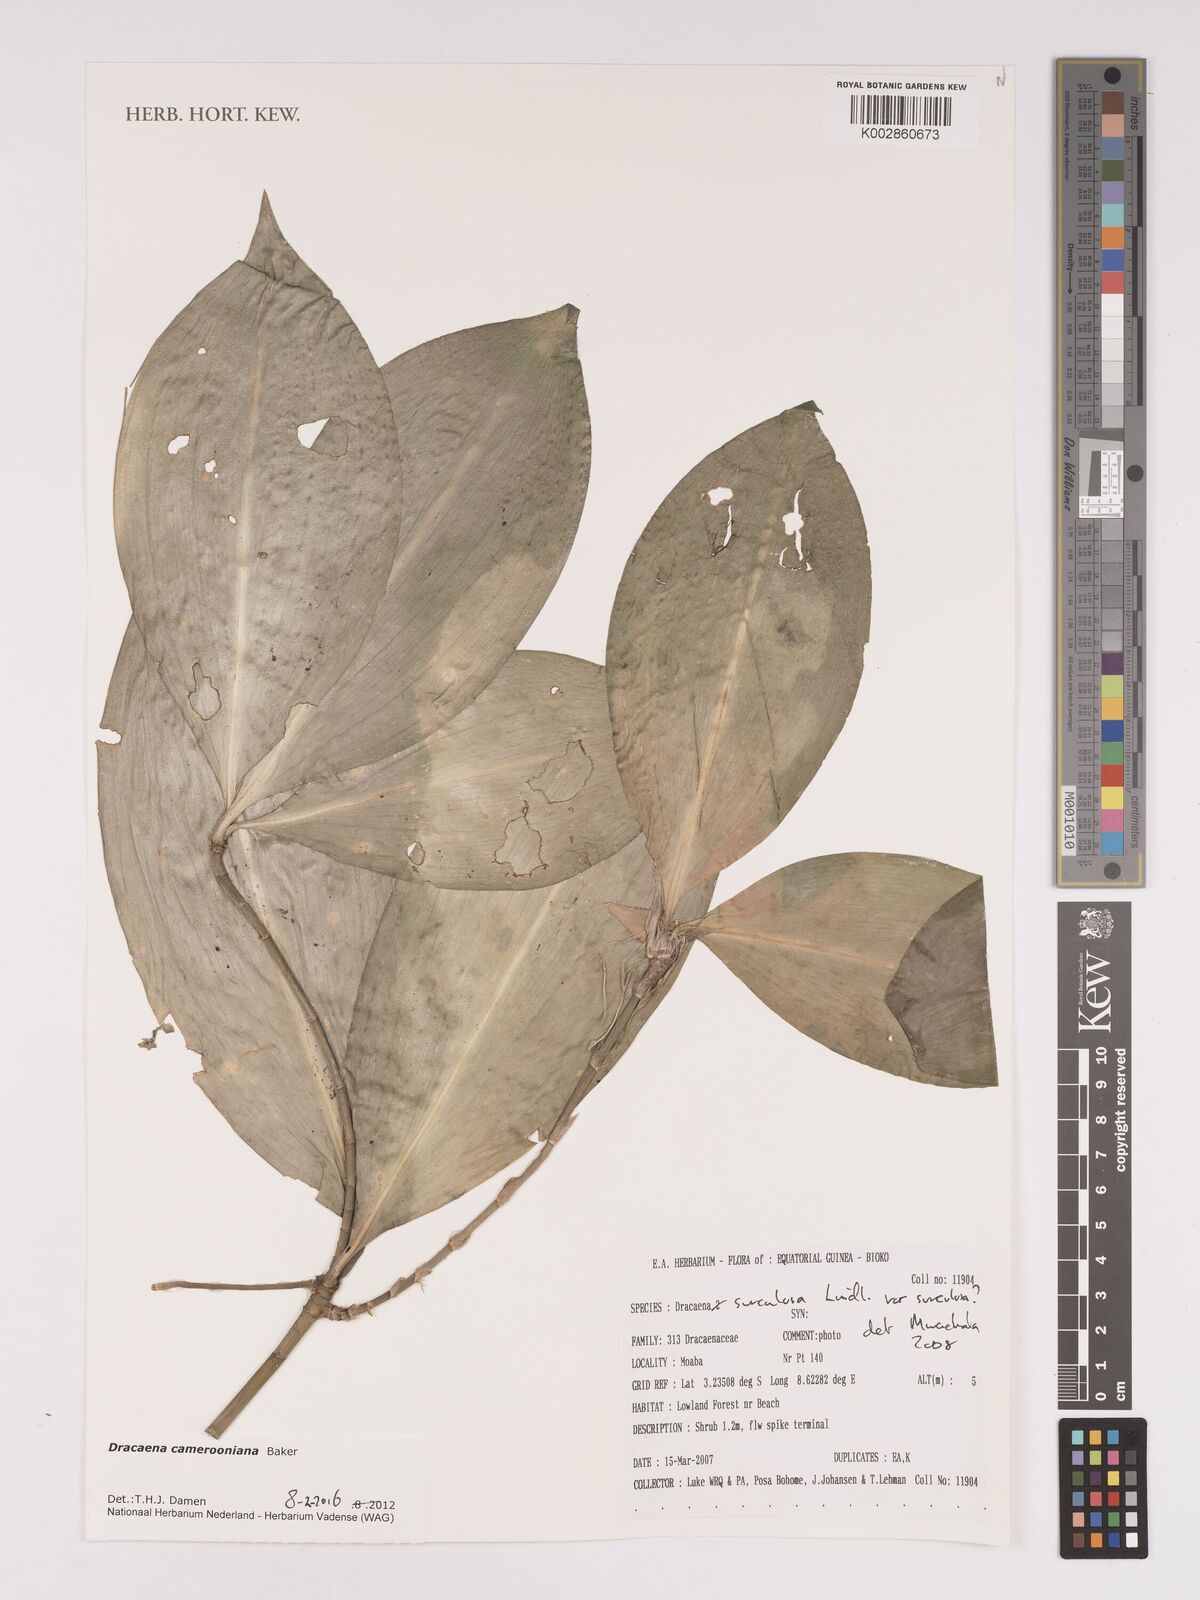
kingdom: Plantae
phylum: Tracheophyta
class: Liliopsida
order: Asparagales
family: Asparagaceae
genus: Dracaena
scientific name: Dracaena camerooniana
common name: Dragon tree
